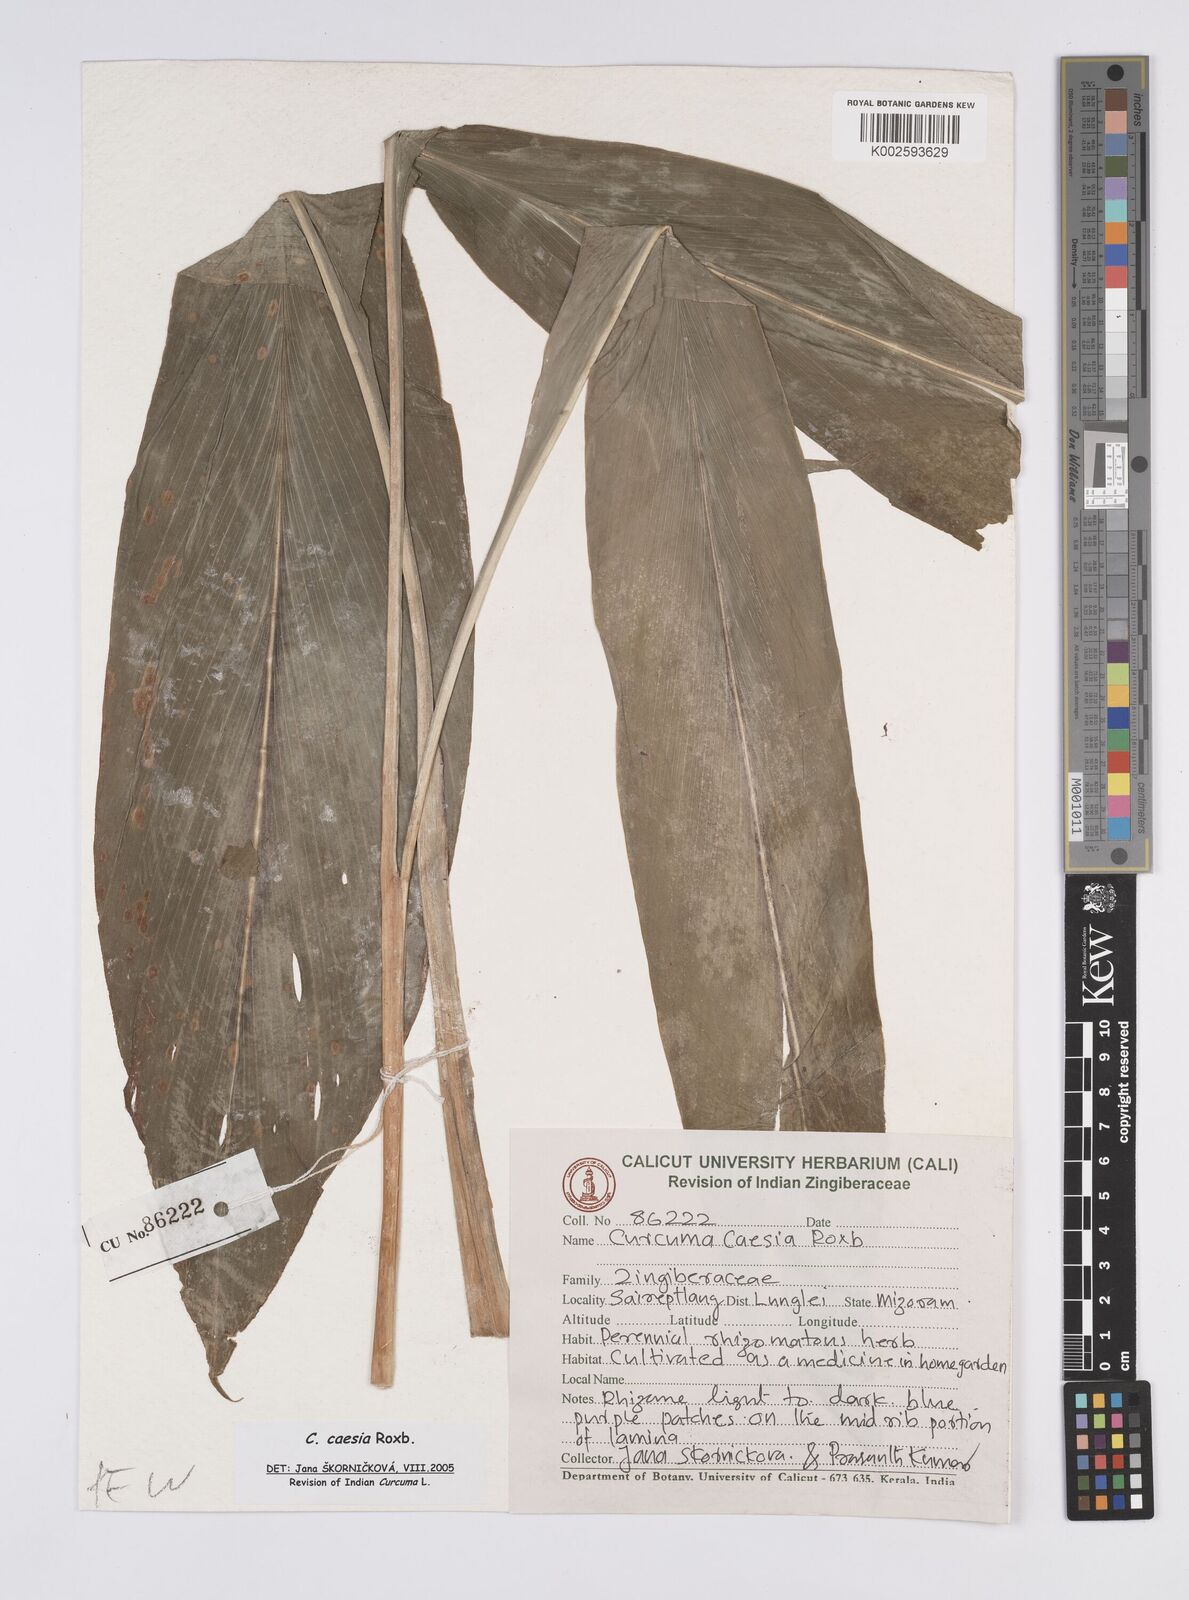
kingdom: Plantae
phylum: Tracheophyta
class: Liliopsida
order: Zingiberales
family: Zingiberaceae
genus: Curcuma
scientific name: Curcuma caesia
